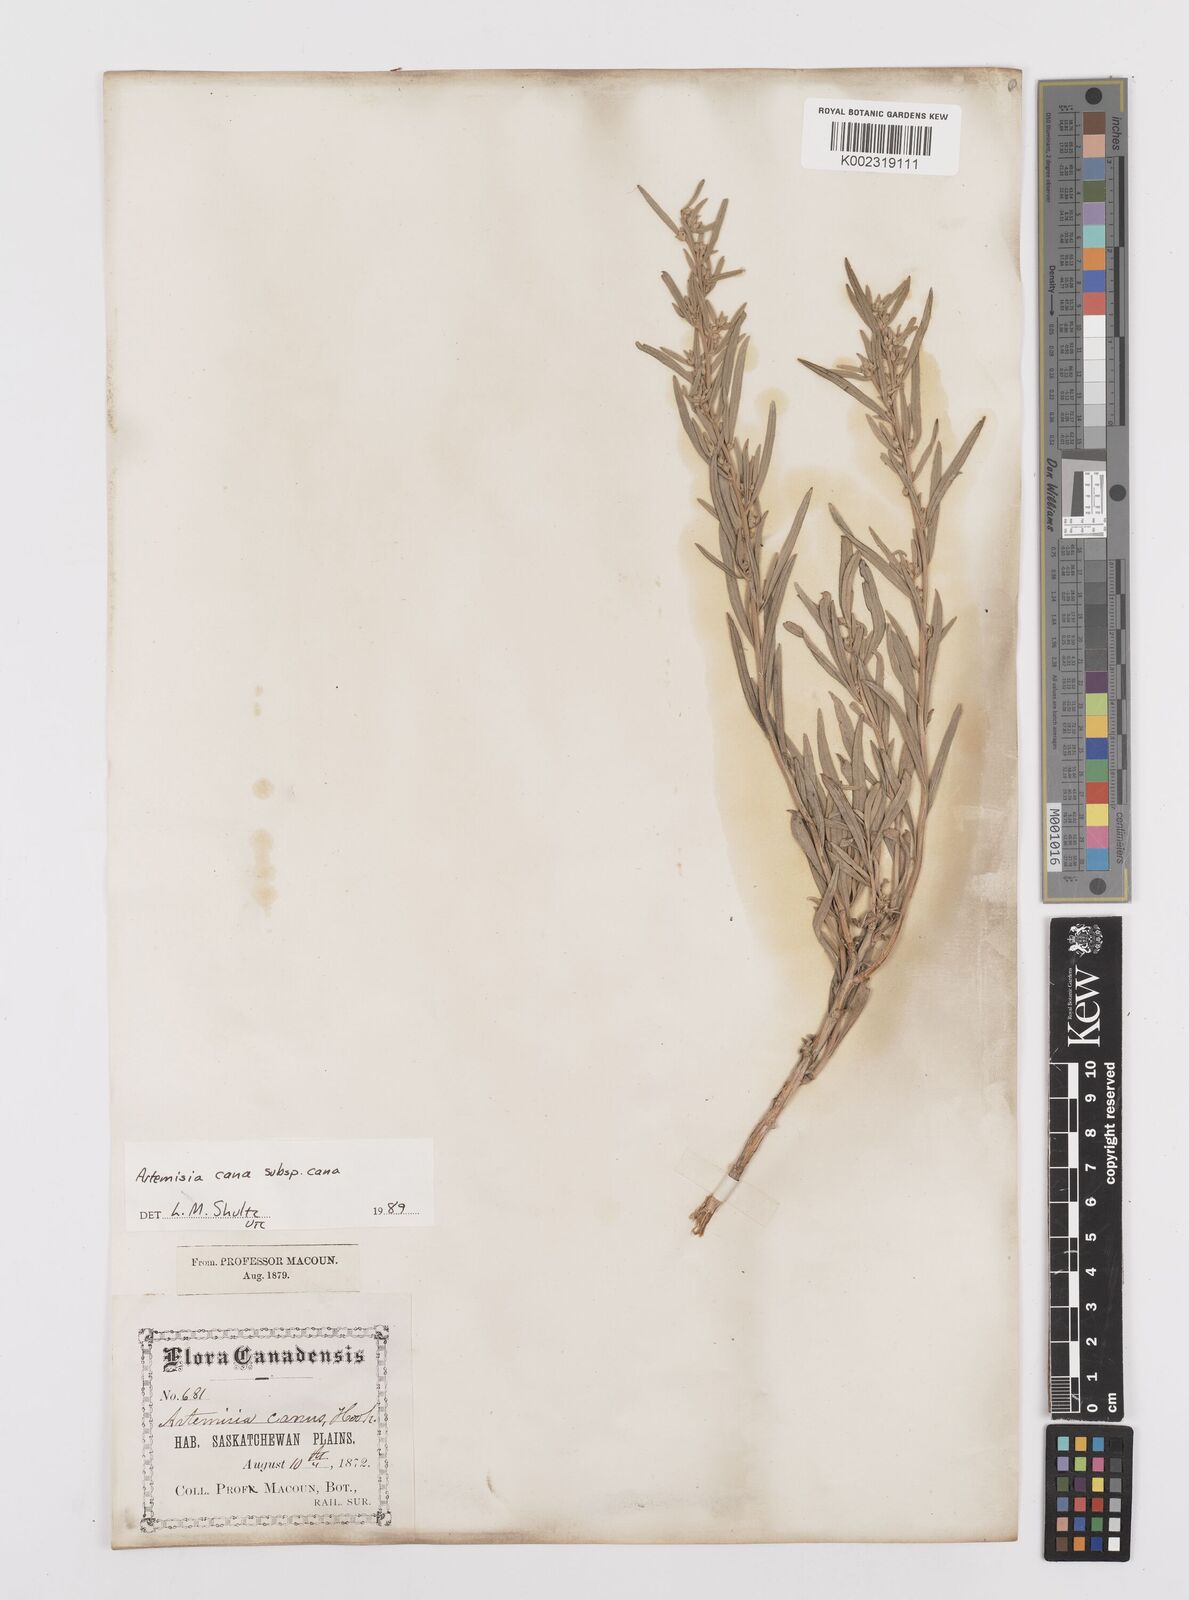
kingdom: Plantae
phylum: Tracheophyta
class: Magnoliopsida
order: Asterales
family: Asteraceae
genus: Artemisia
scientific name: Artemisia cana
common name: Silver sagebrush
